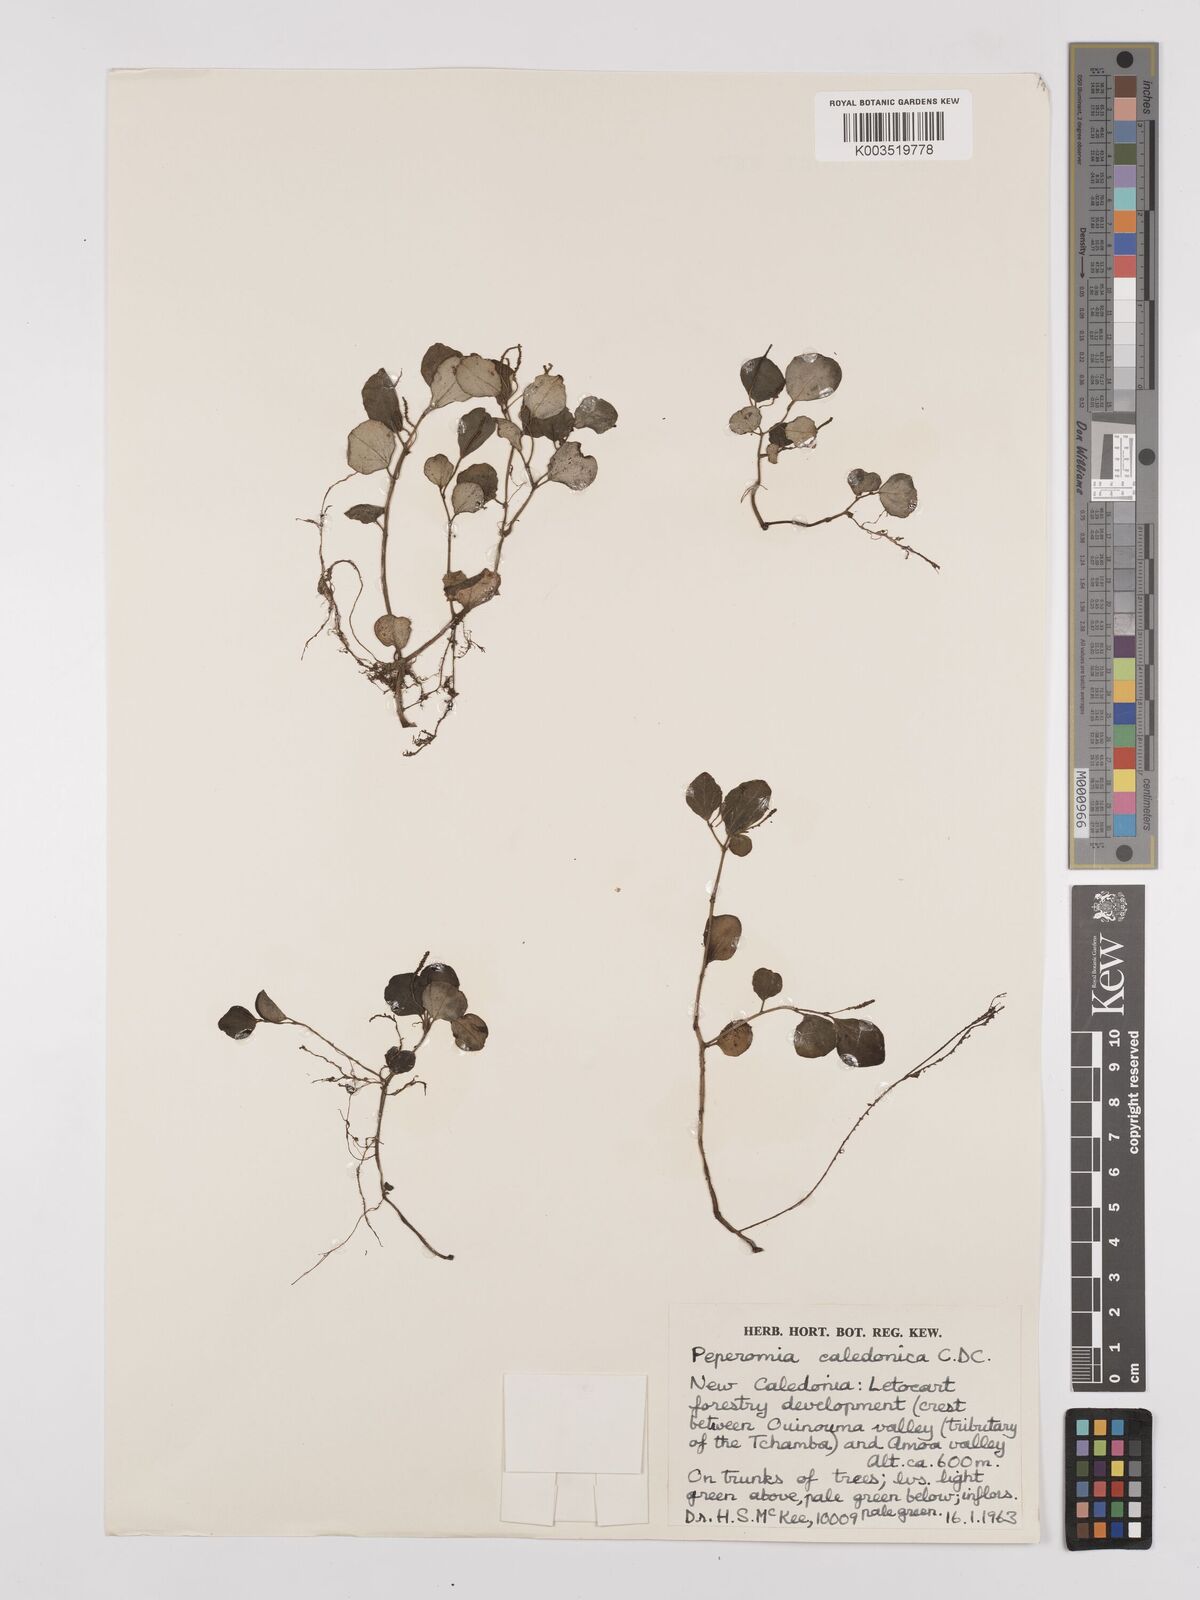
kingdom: Plantae
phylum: Tracheophyta
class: Magnoliopsida
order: Piperales
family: Piperaceae
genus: Peperomia
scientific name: Peperomia caledonica
